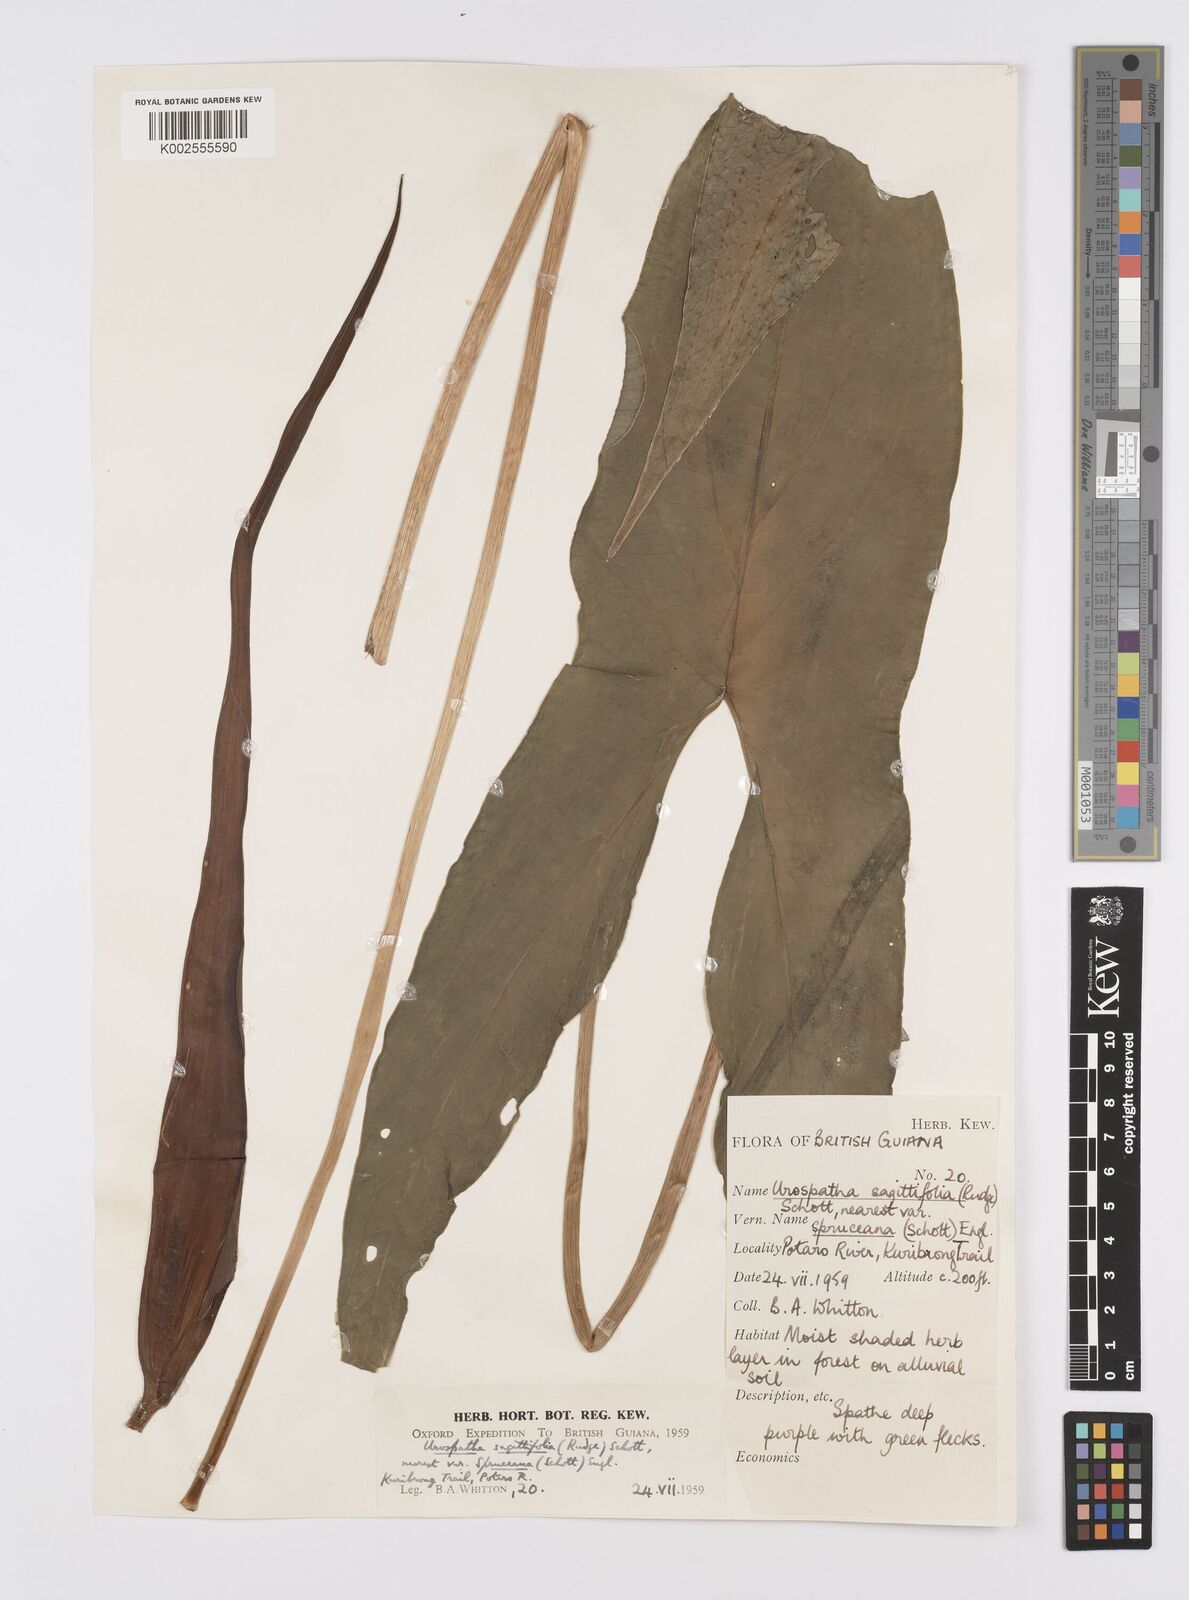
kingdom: Plantae
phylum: Tracheophyta
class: Liliopsida
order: Alismatales
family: Araceae
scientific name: Araceae
